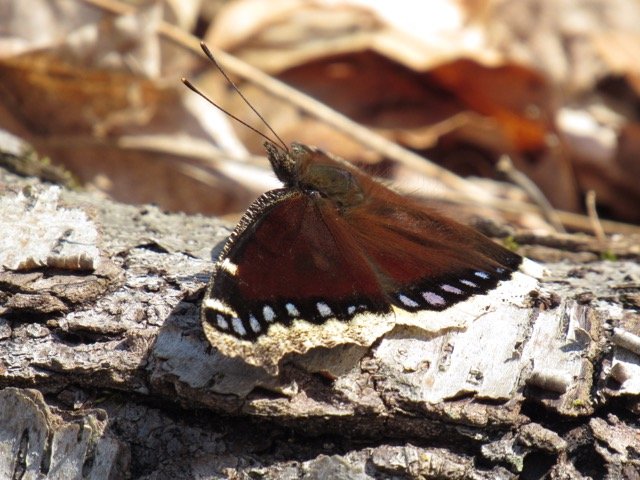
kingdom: Animalia
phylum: Arthropoda
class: Insecta
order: Lepidoptera
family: Nymphalidae
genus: Nymphalis
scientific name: Nymphalis antiopa
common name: Mourning Cloak
